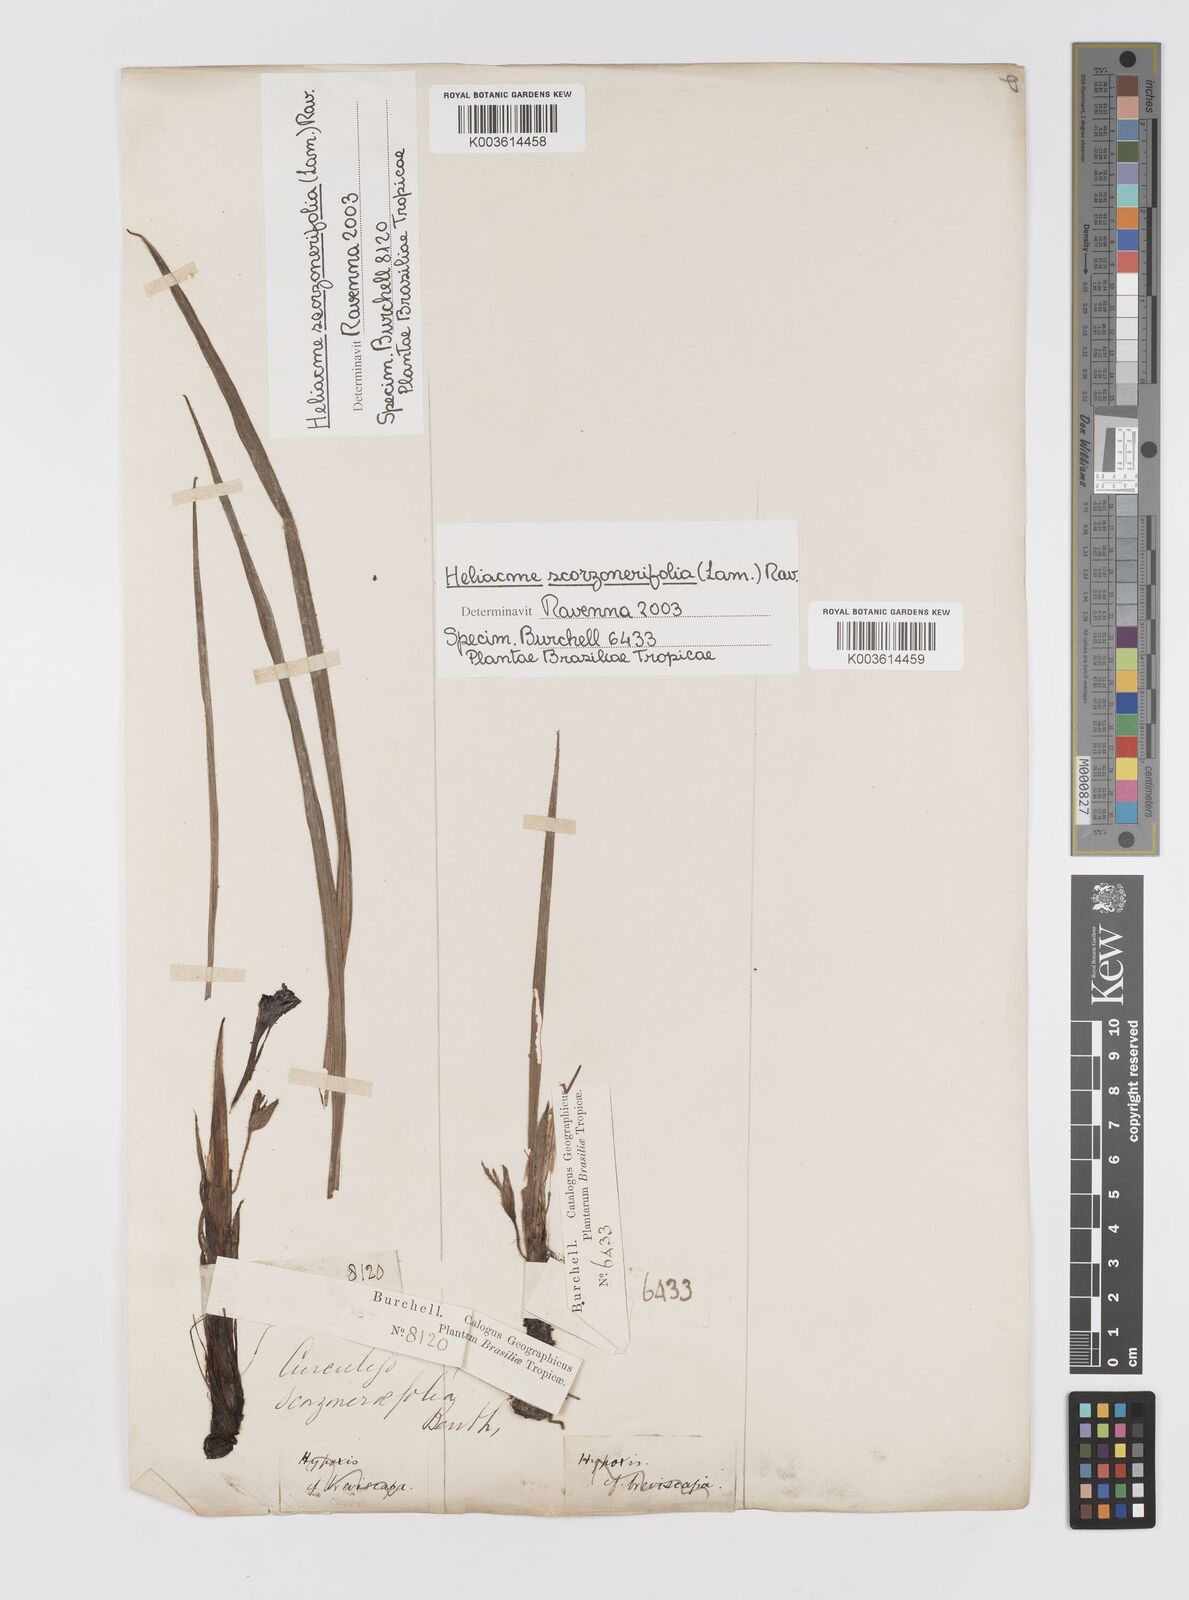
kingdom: Plantae
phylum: Tracheophyta
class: Liliopsida
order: Asparagales
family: Hypoxidaceae
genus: Curculigo
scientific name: Curculigo scorzonerifolia
